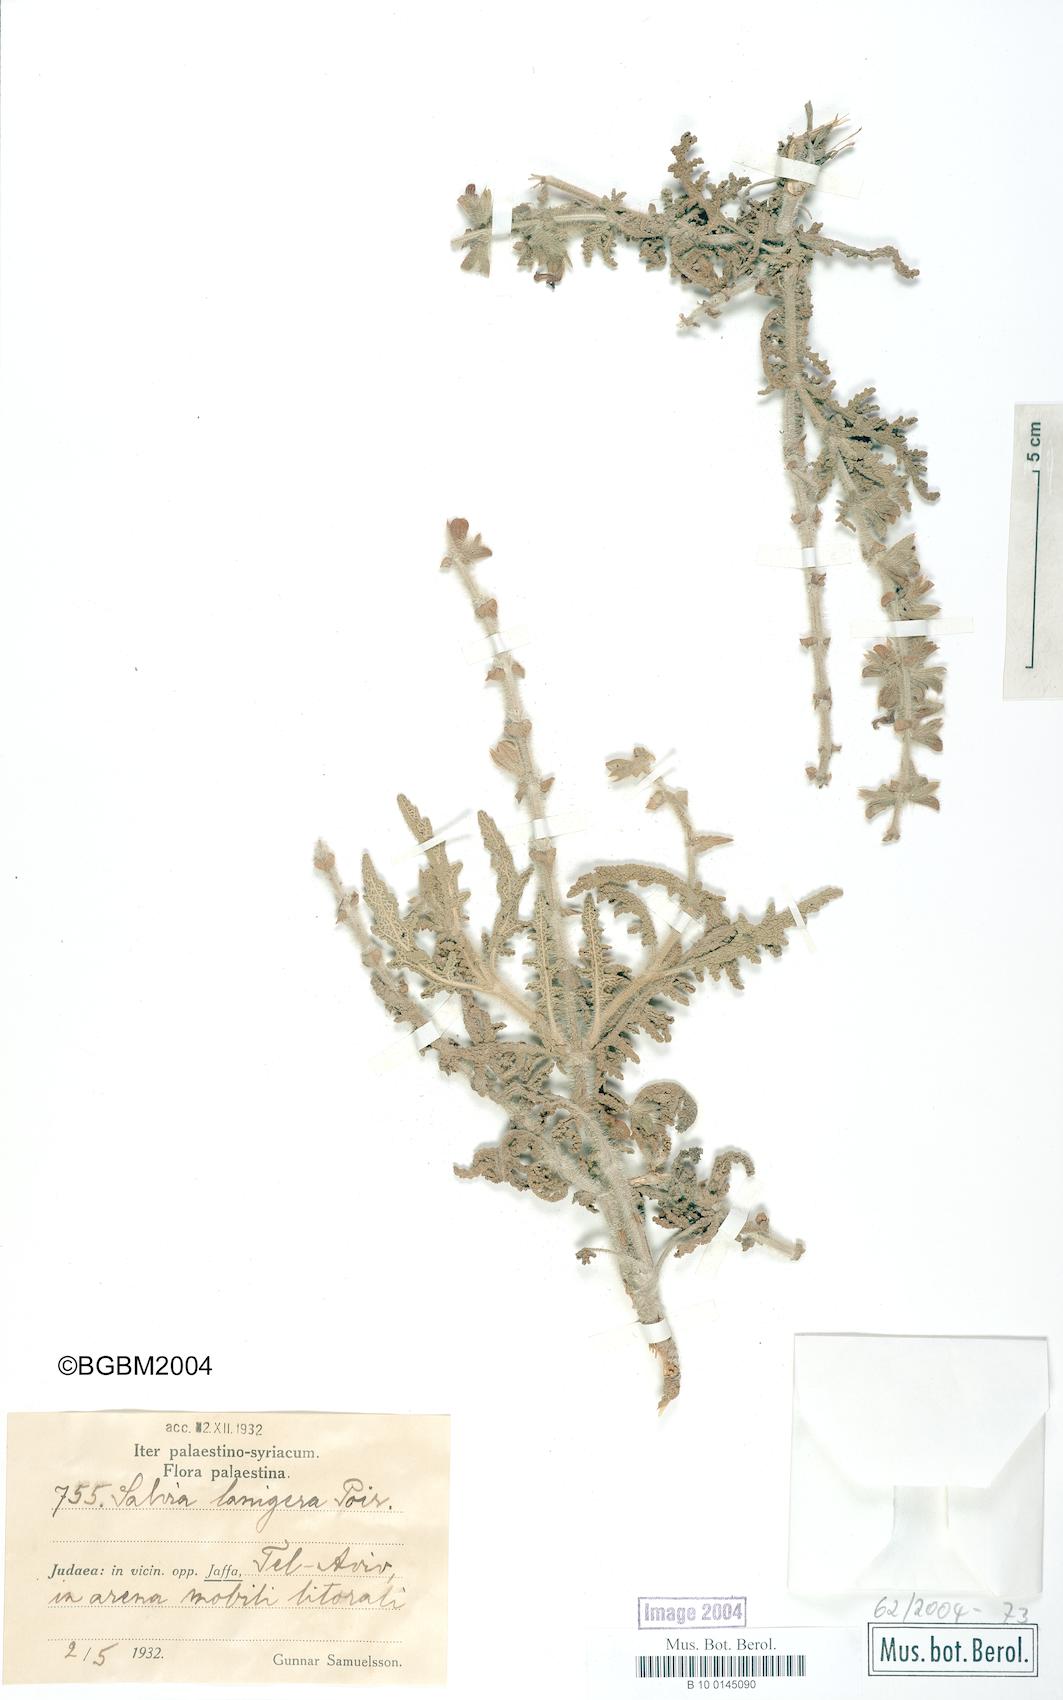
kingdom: Plantae
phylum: Tracheophyta
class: Magnoliopsida
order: Lamiales
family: Lamiaceae
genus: Salvia
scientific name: Salvia lanigera
